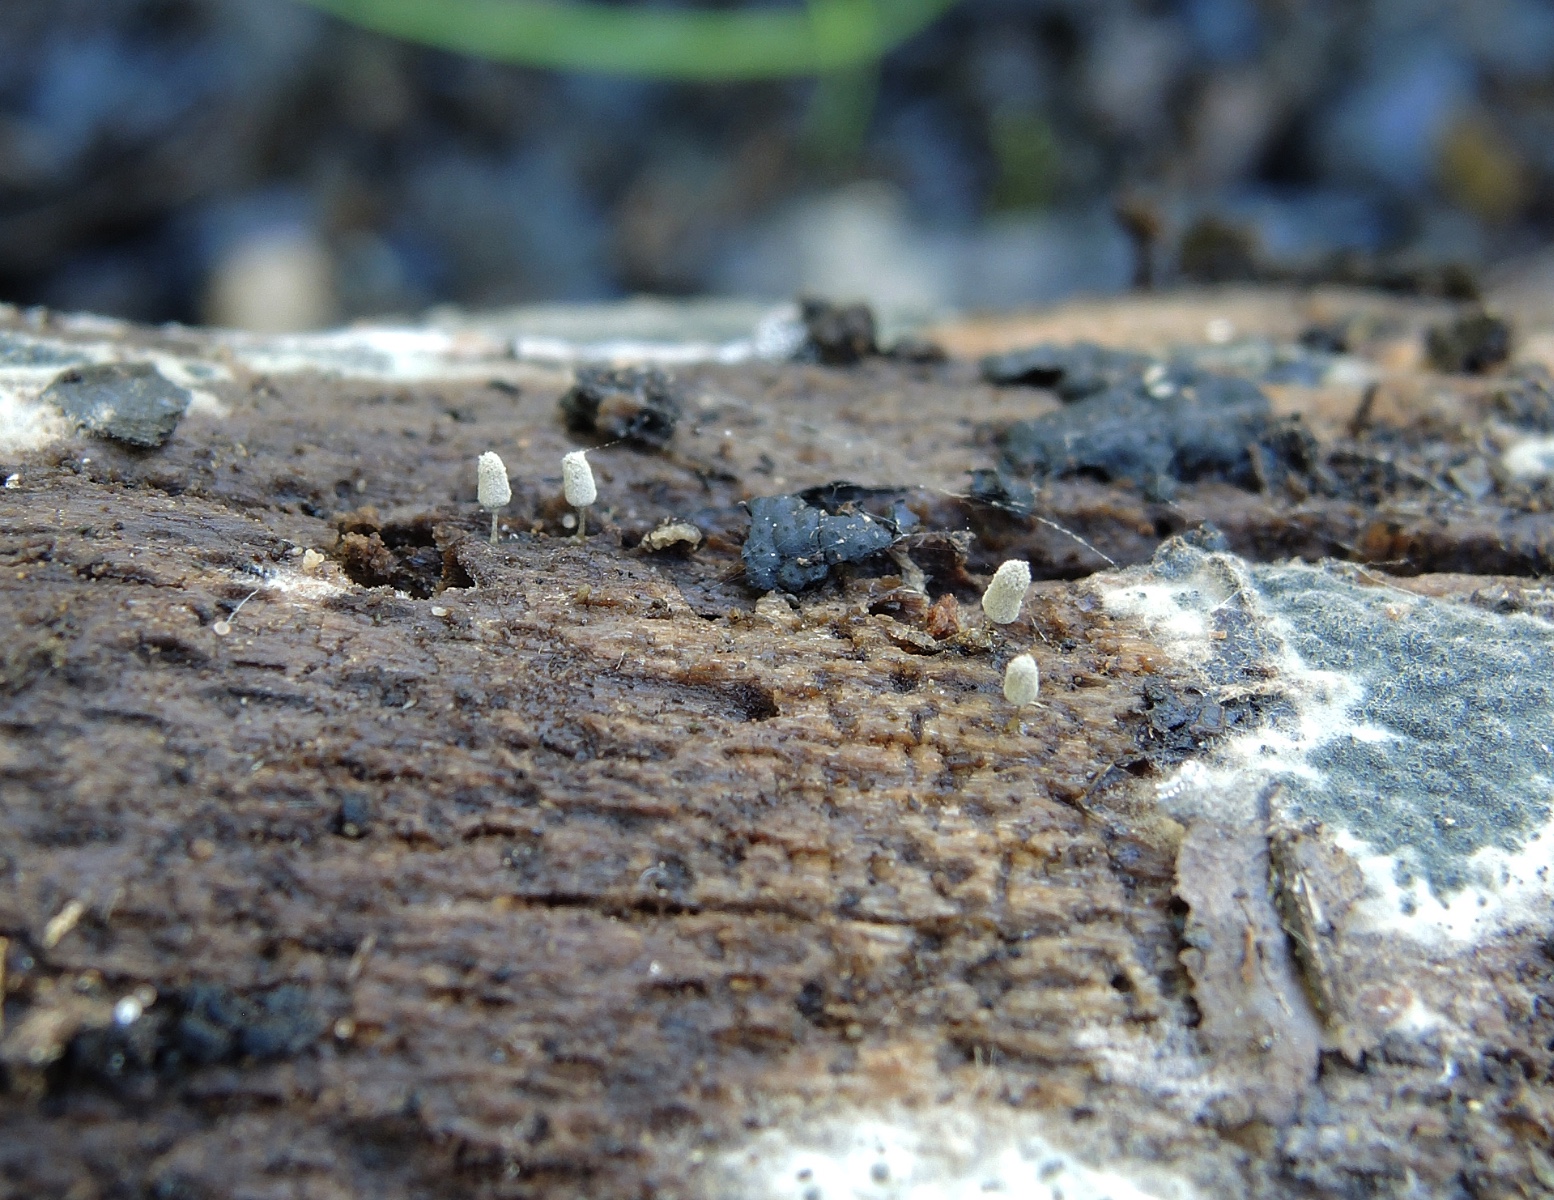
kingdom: Protozoa
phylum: Mycetozoa
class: Myxomycetes
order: Trichiales
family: Arcyriaceae
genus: Arcyria
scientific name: Arcyria cinerea
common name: White carnival candy slime mold
